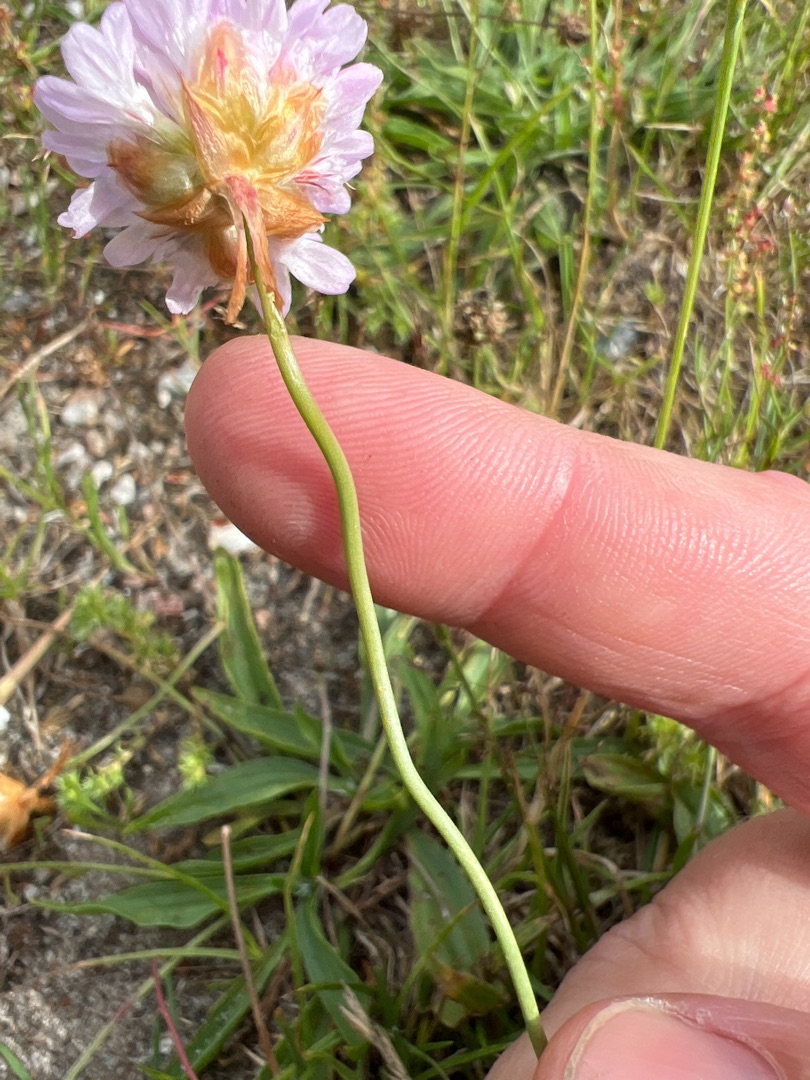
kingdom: Plantae
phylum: Tracheophyta
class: Magnoliopsida
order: Caryophyllales
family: Plumbaginaceae
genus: Armeria
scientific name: Armeria maritima
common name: Vej-engelskgræs
